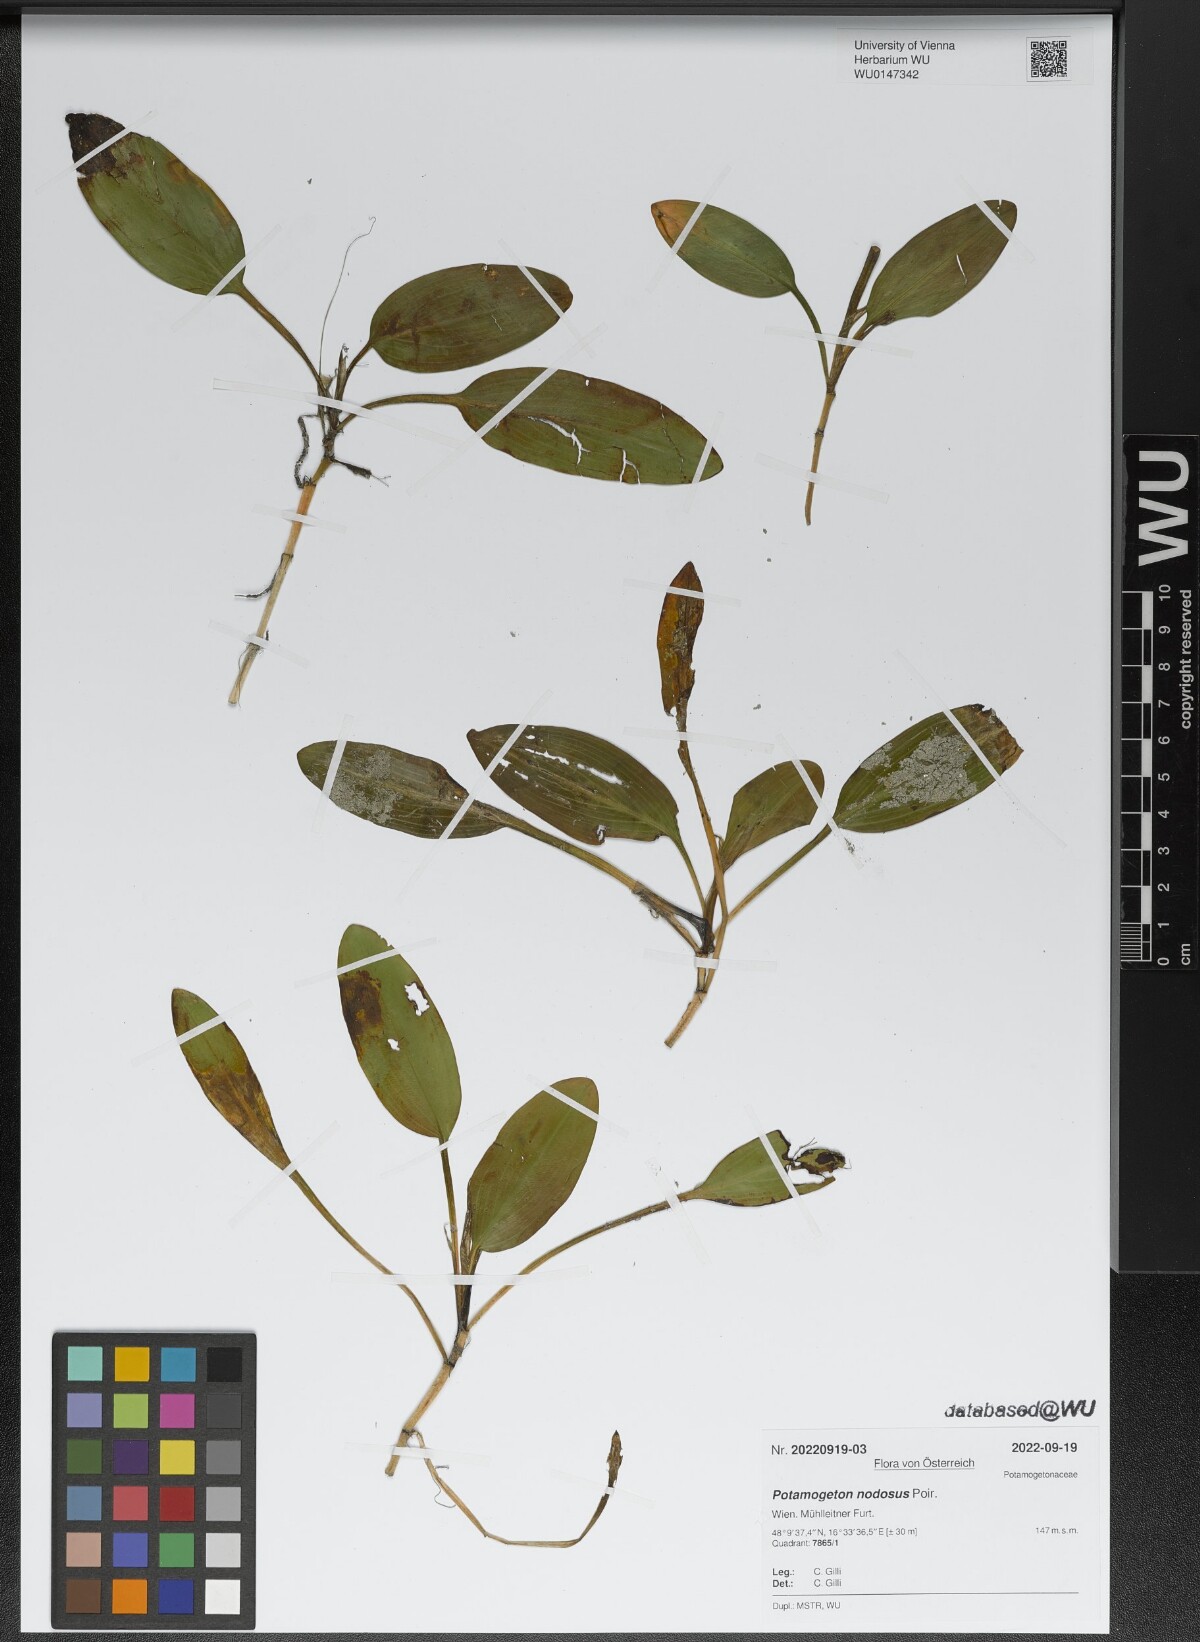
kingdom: Plantae
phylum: Tracheophyta
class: Liliopsida
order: Alismatales
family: Potamogetonaceae
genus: Potamogeton
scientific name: Potamogeton nodosus
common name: Loddon pondweed
